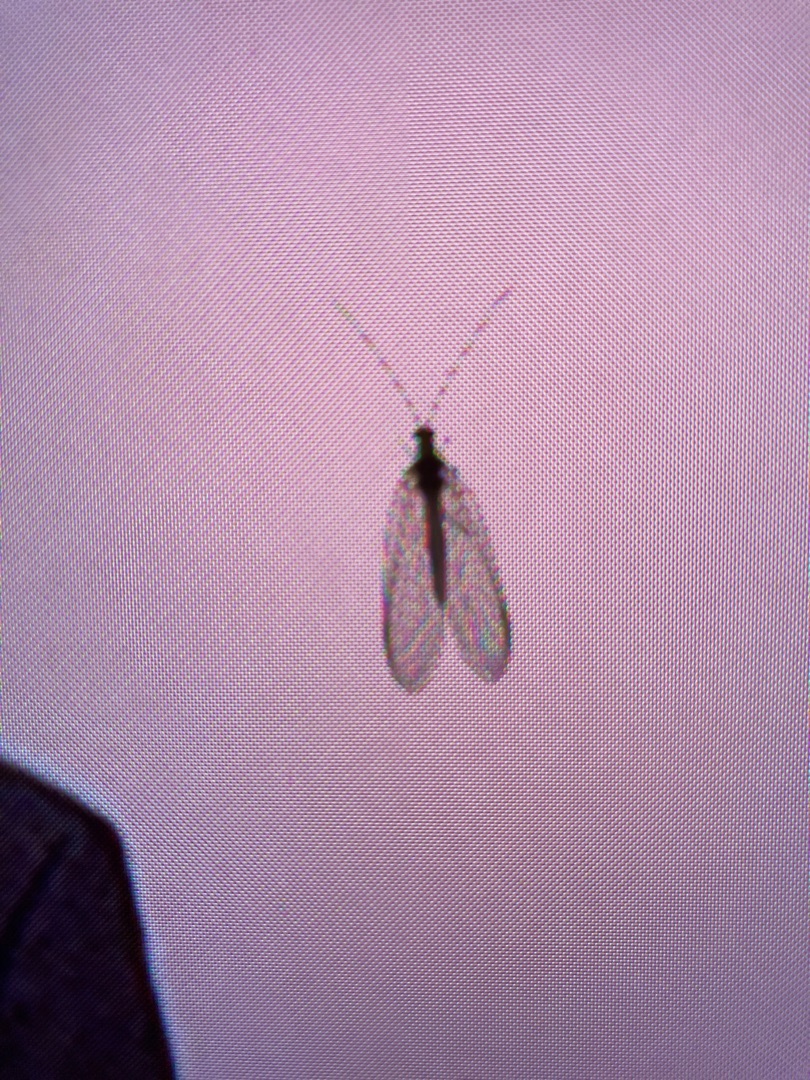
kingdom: Animalia
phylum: Arthropoda
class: Insecta
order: Neuroptera
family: Chrysopidae
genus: Chrysoperla
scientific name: Chrysoperla carnea
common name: Almindelig guldøje
